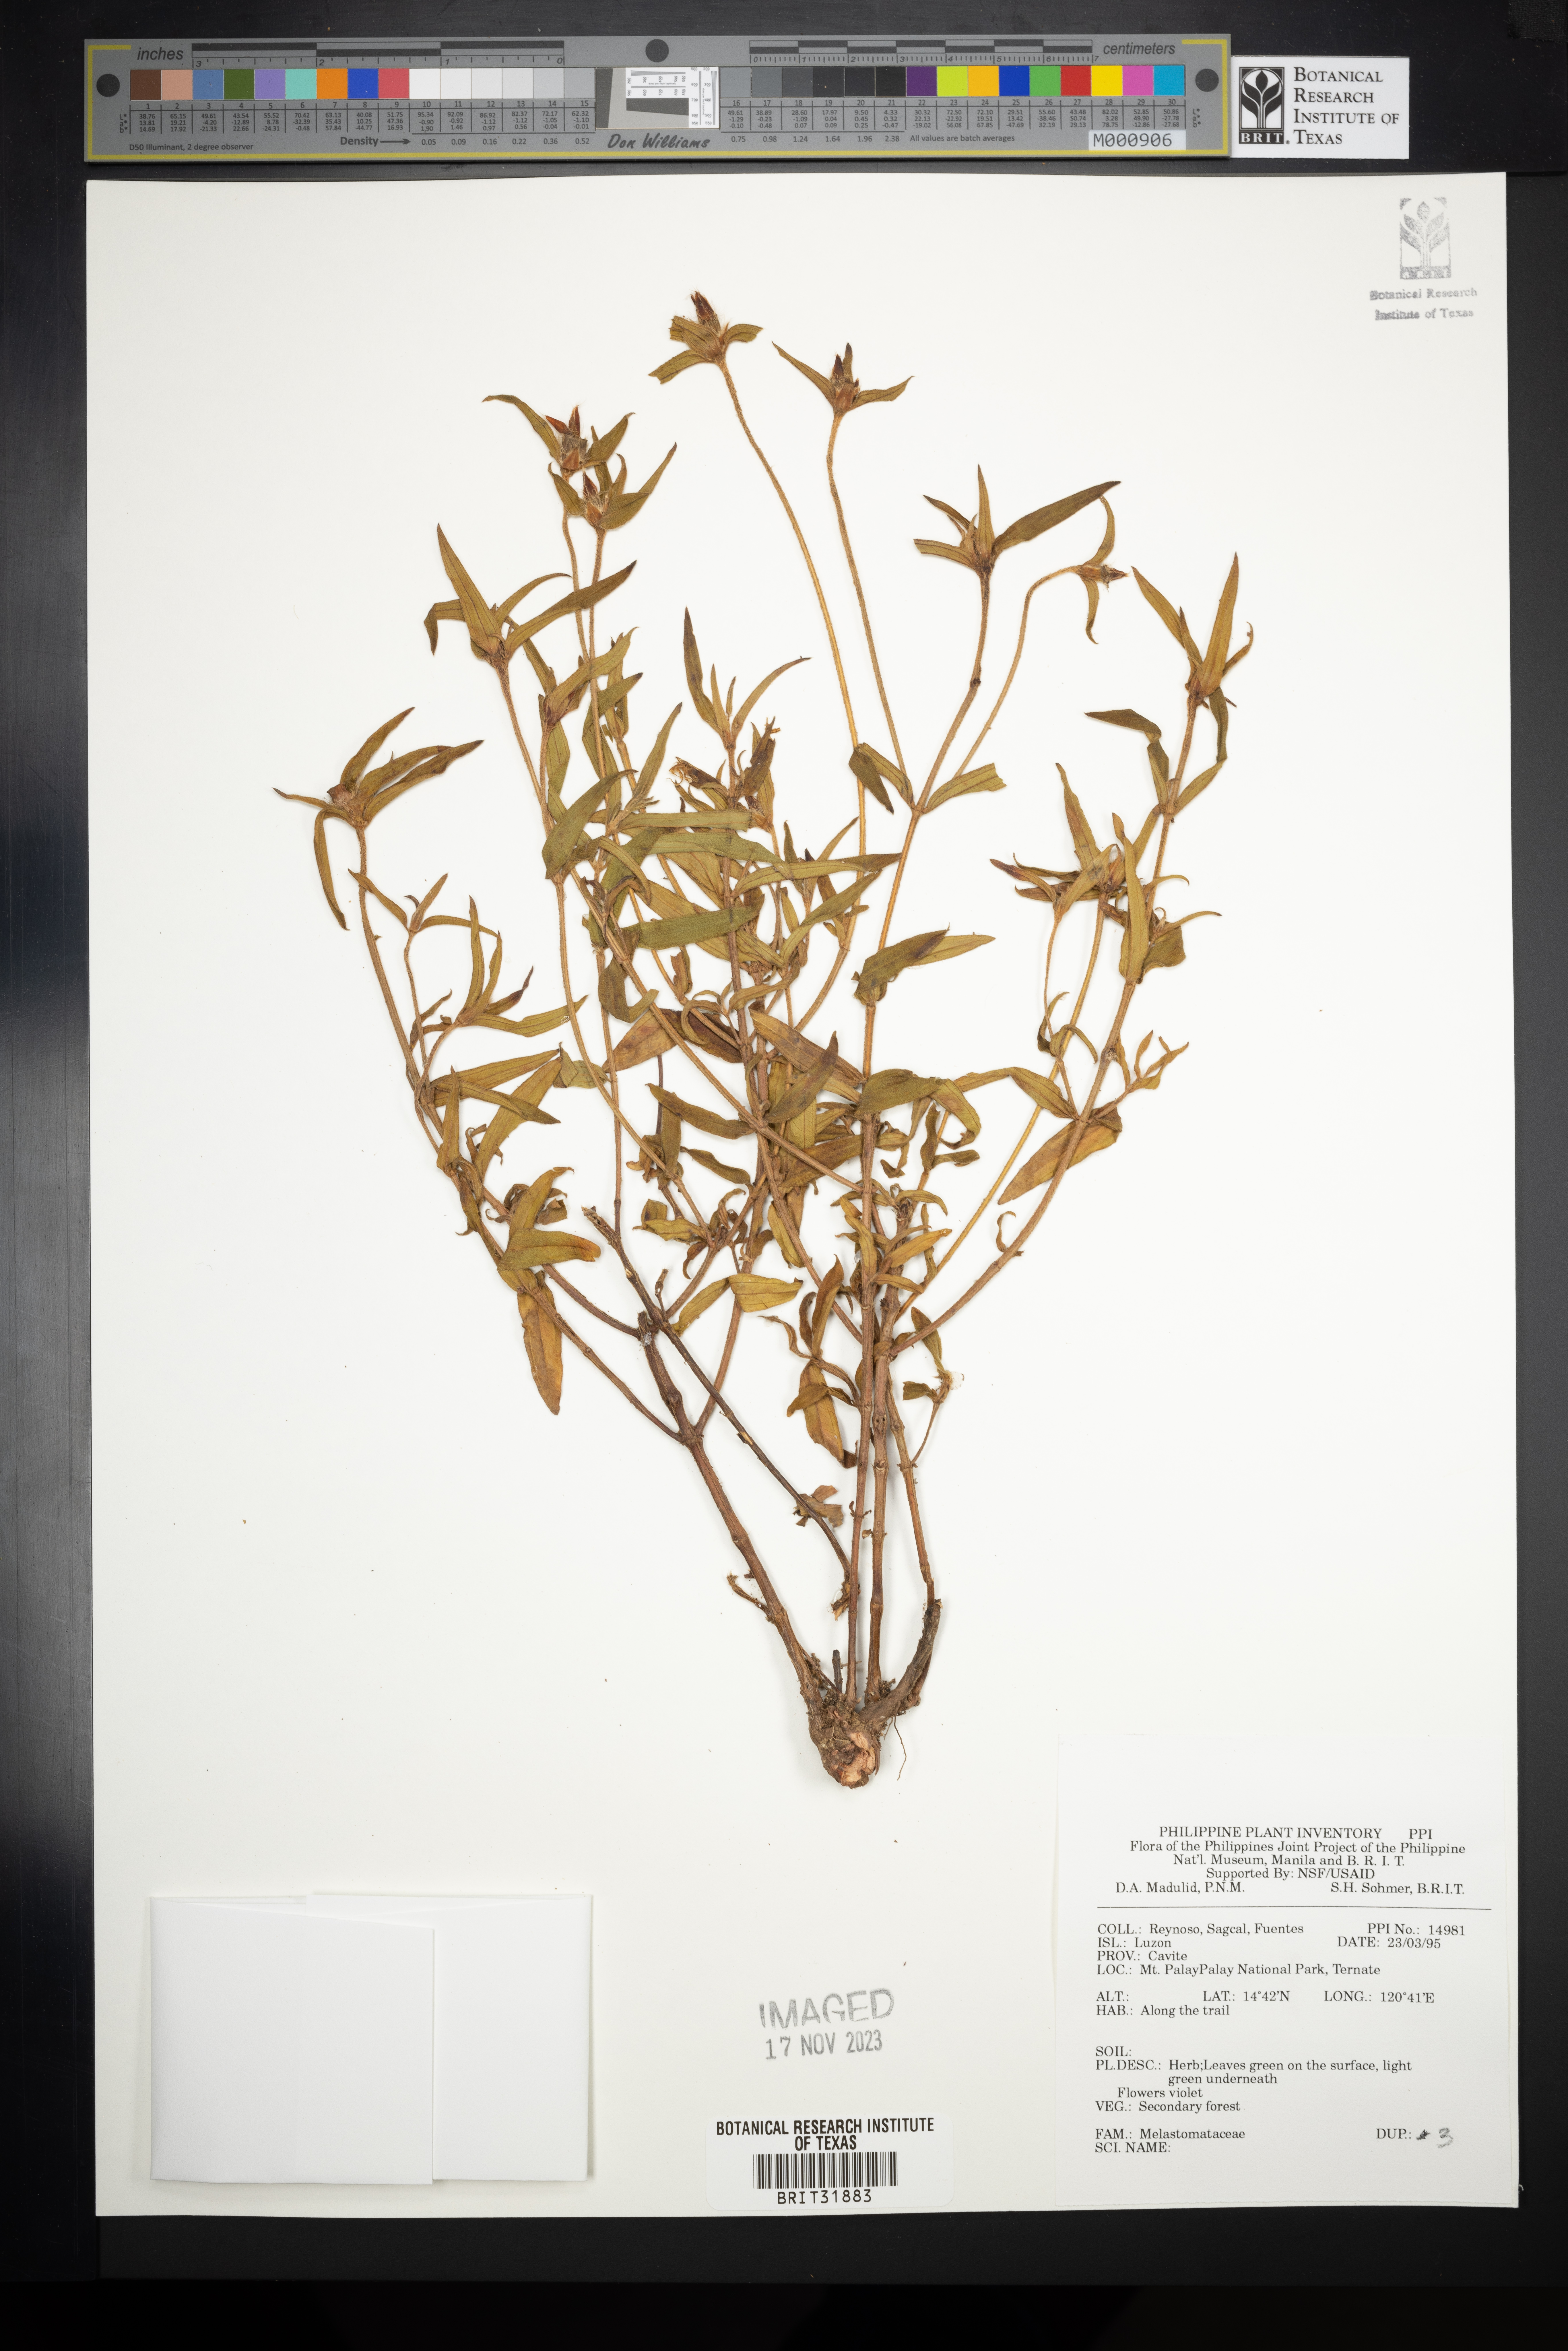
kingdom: Plantae
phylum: Tracheophyta
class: Magnoliopsida
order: Myrtales
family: Melastomataceae
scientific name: Melastomataceae
